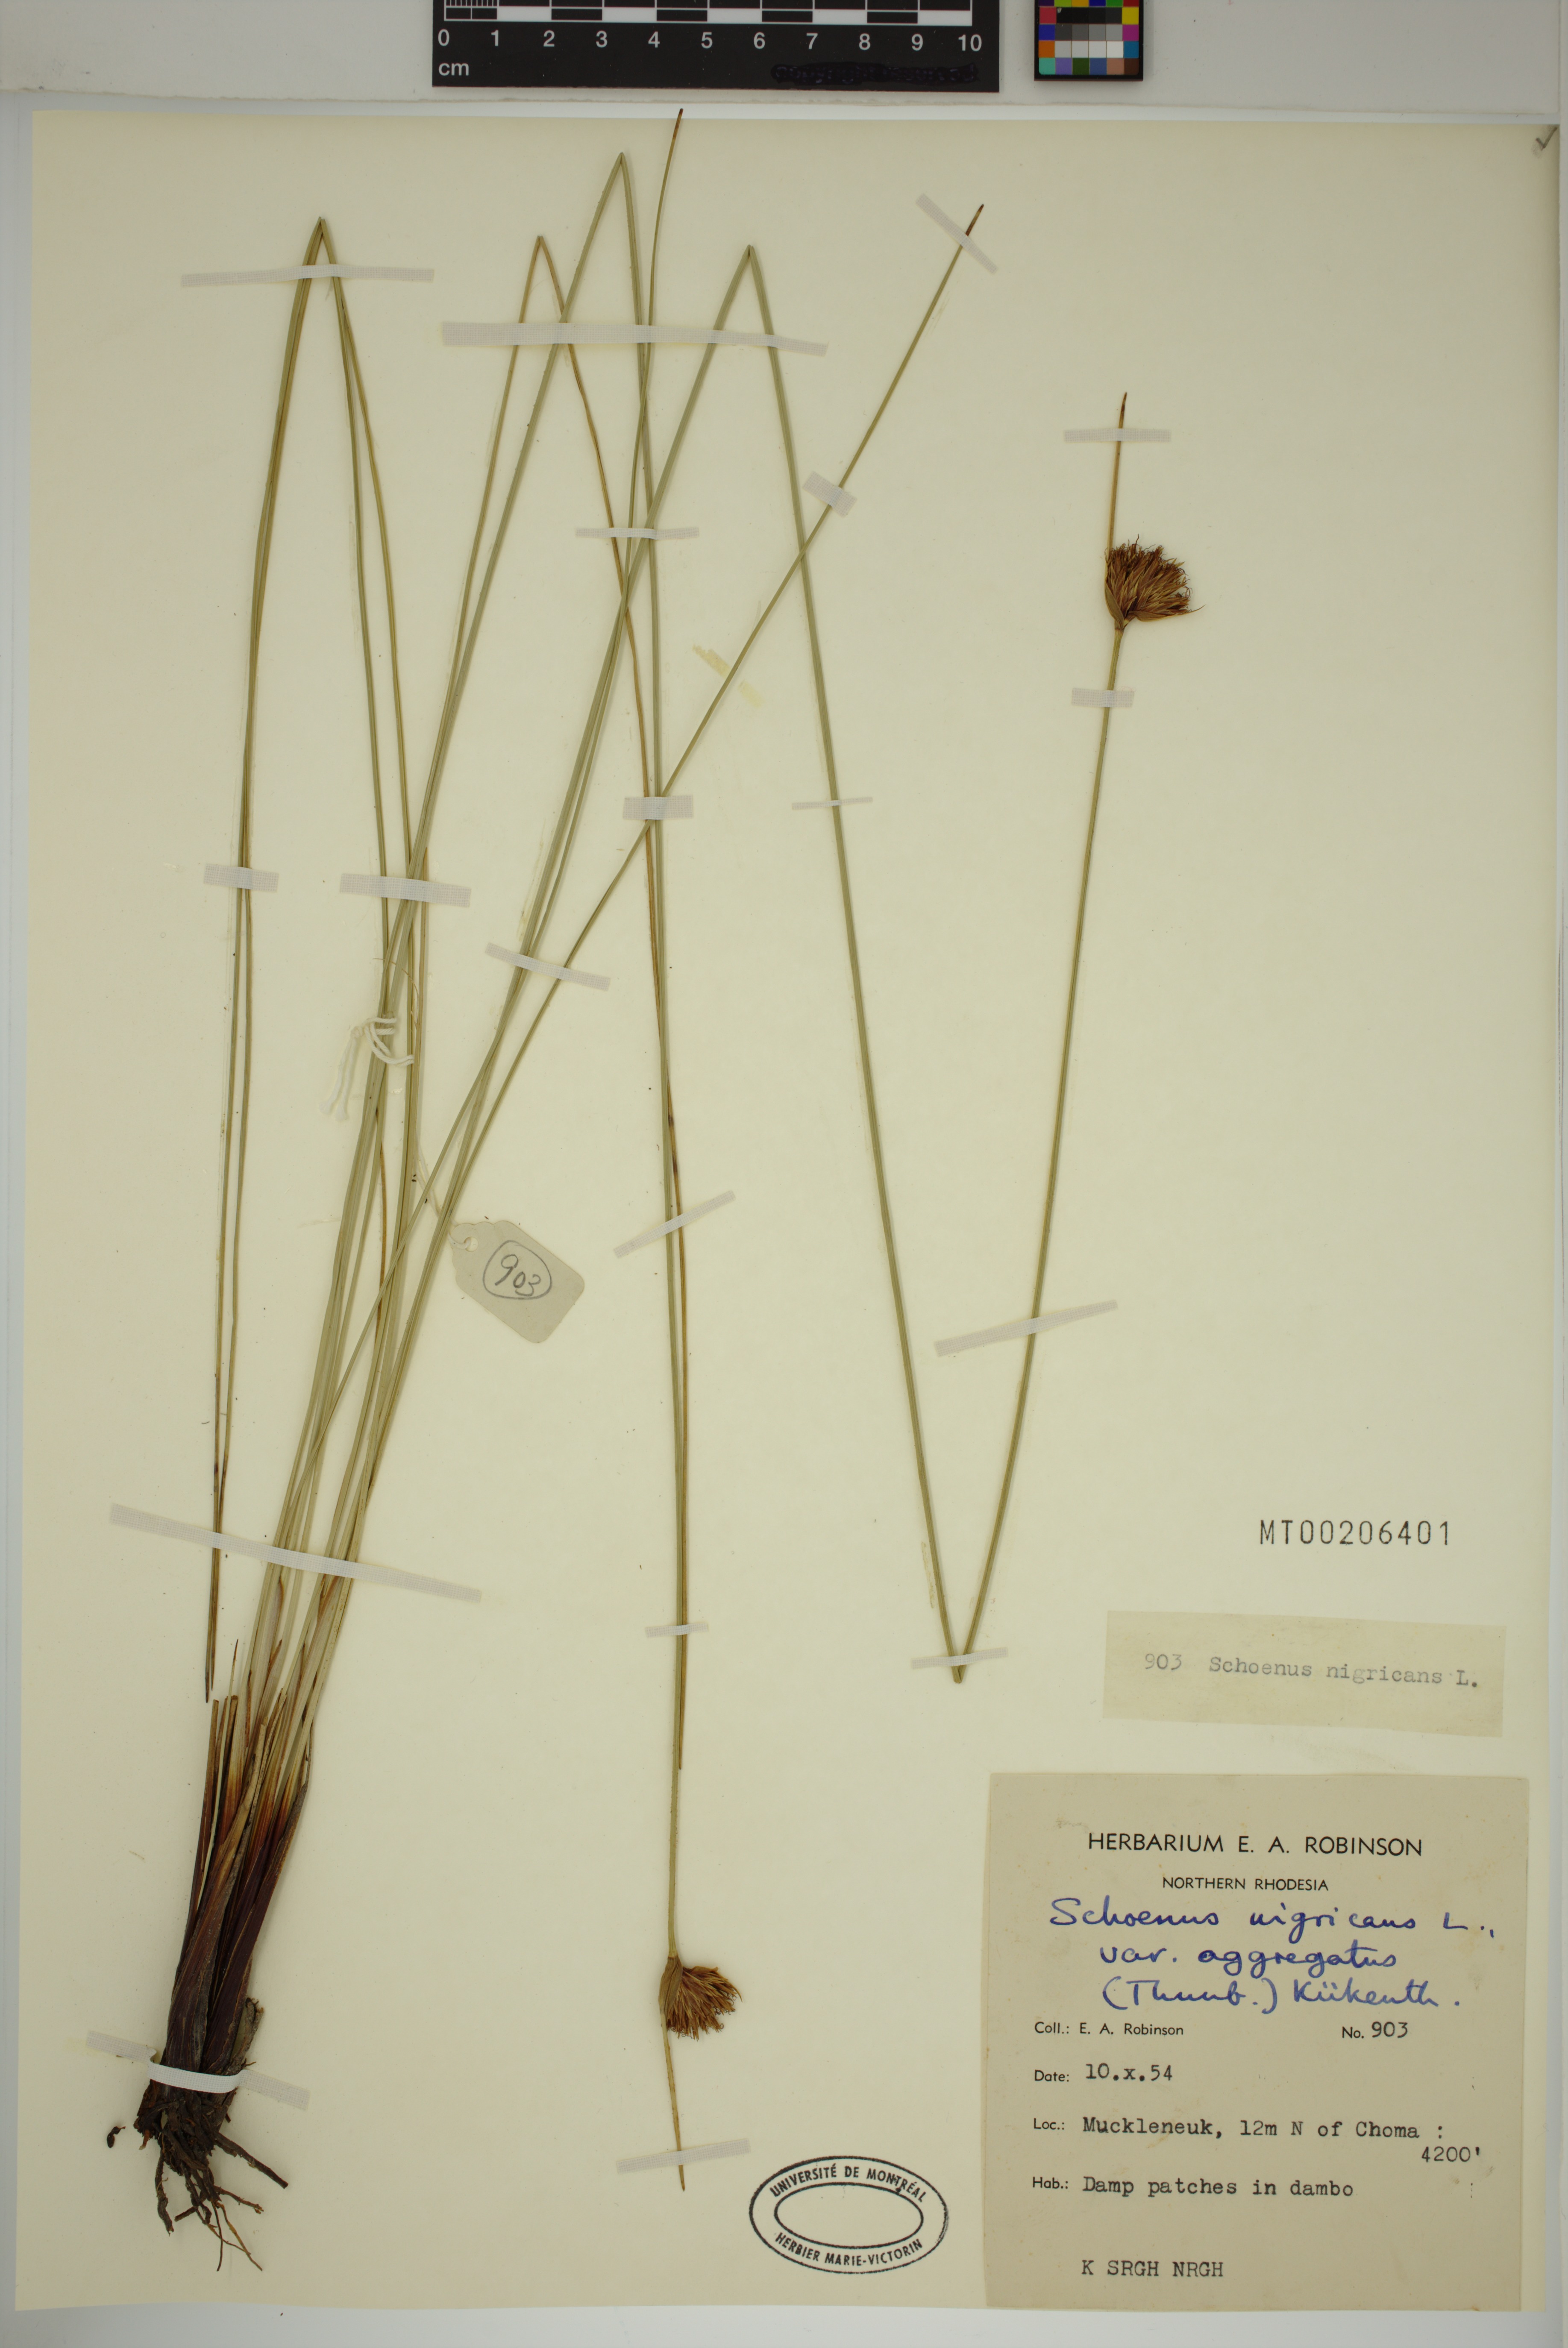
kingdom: Plantae
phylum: Tracheophyta
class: Liliopsida
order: Poales
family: Cyperaceae
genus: Schoenus
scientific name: Schoenus nigricans
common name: Black bog-rush
